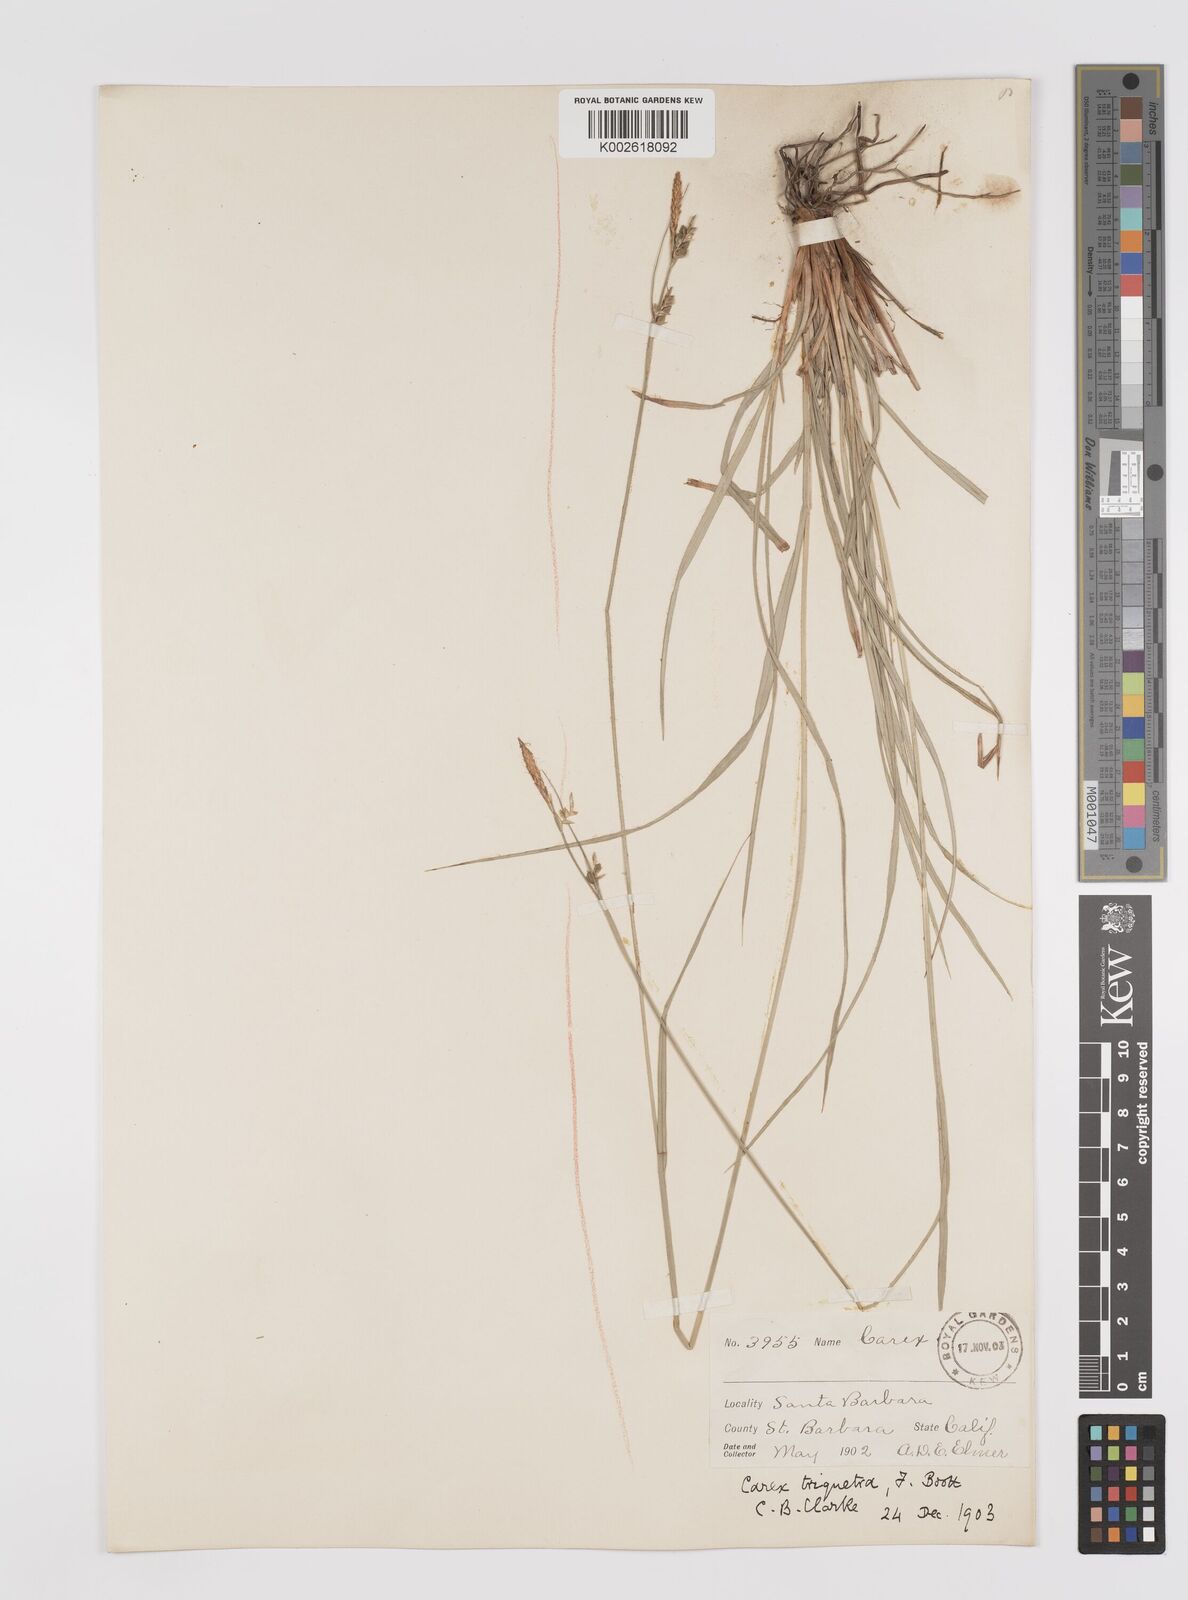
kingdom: Plantae
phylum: Tracheophyta
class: Liliopsida
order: Poales
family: Cyperaceae
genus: Carex
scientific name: Carex triquetra
